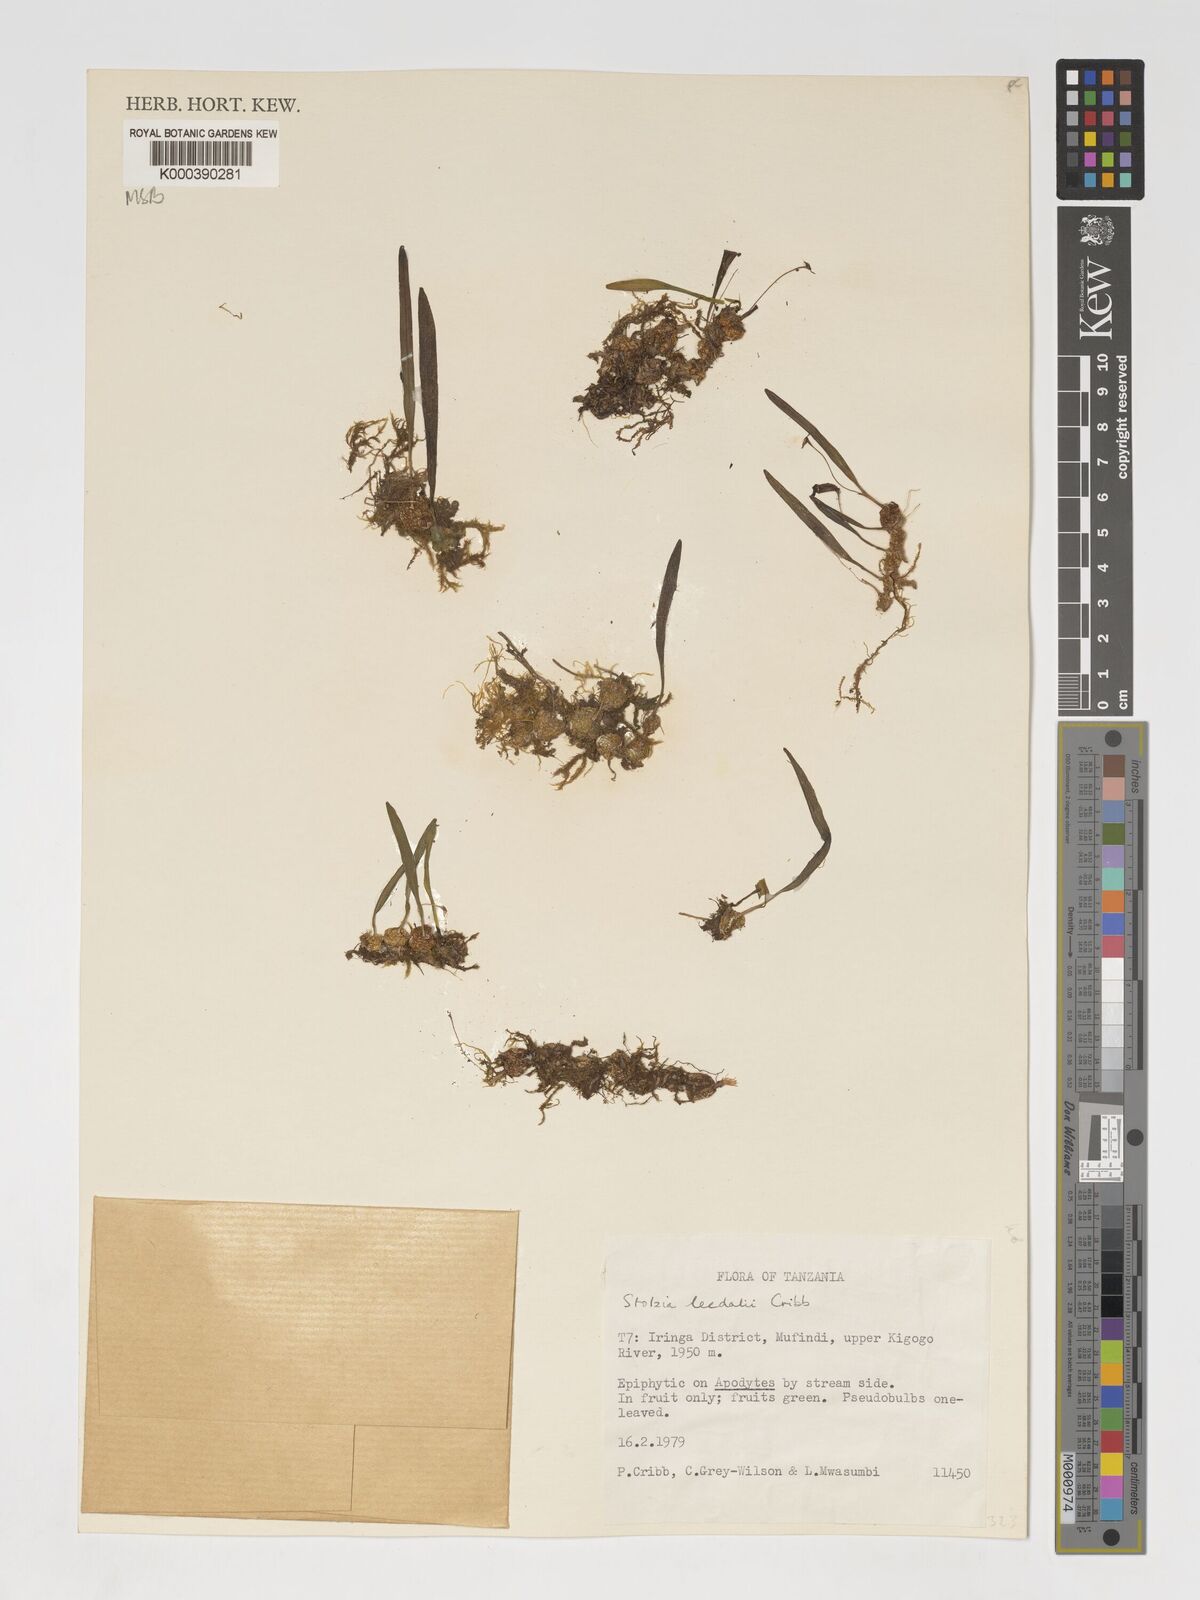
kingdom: Plantae
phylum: Tracheophyta
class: Liliopsida
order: Asparagales
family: Orchidaceae
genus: Porpax
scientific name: Porpax leedalii
